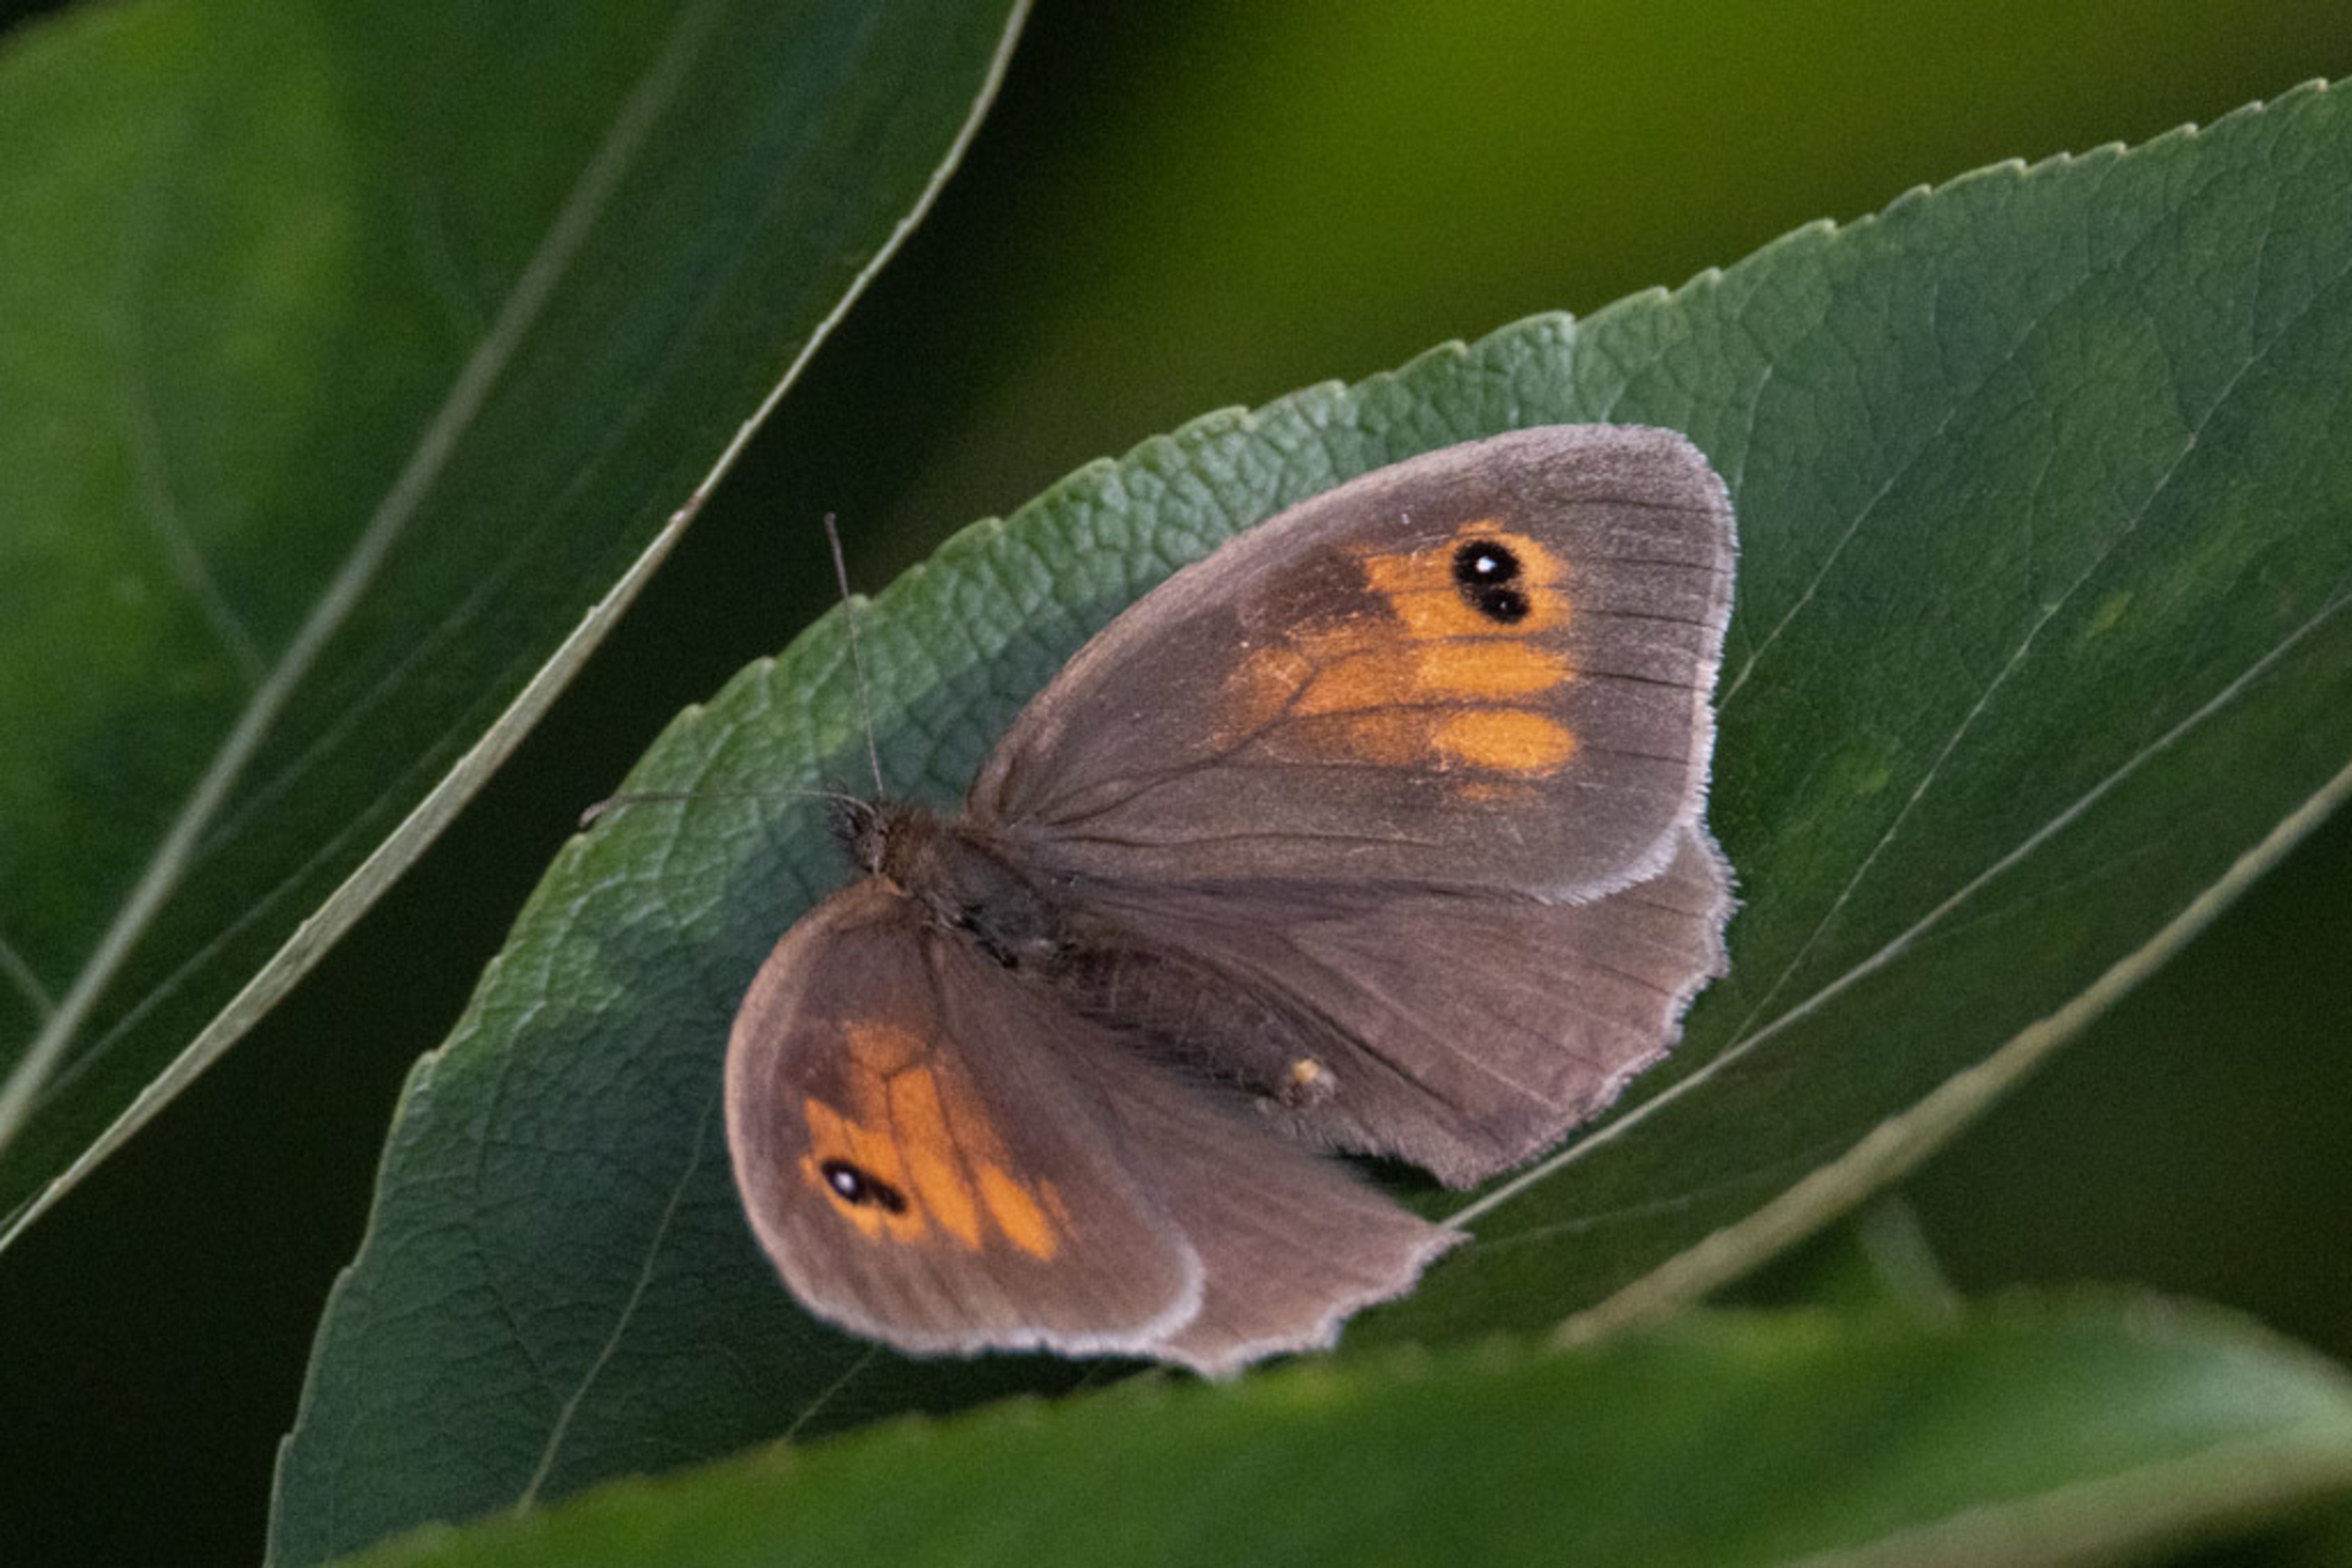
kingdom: Animalia
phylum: Arthropoda
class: Insecta
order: Lepidoptera
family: Nymphalidae
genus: Maniola
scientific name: Maniola jurtina
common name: Græsrandøje
